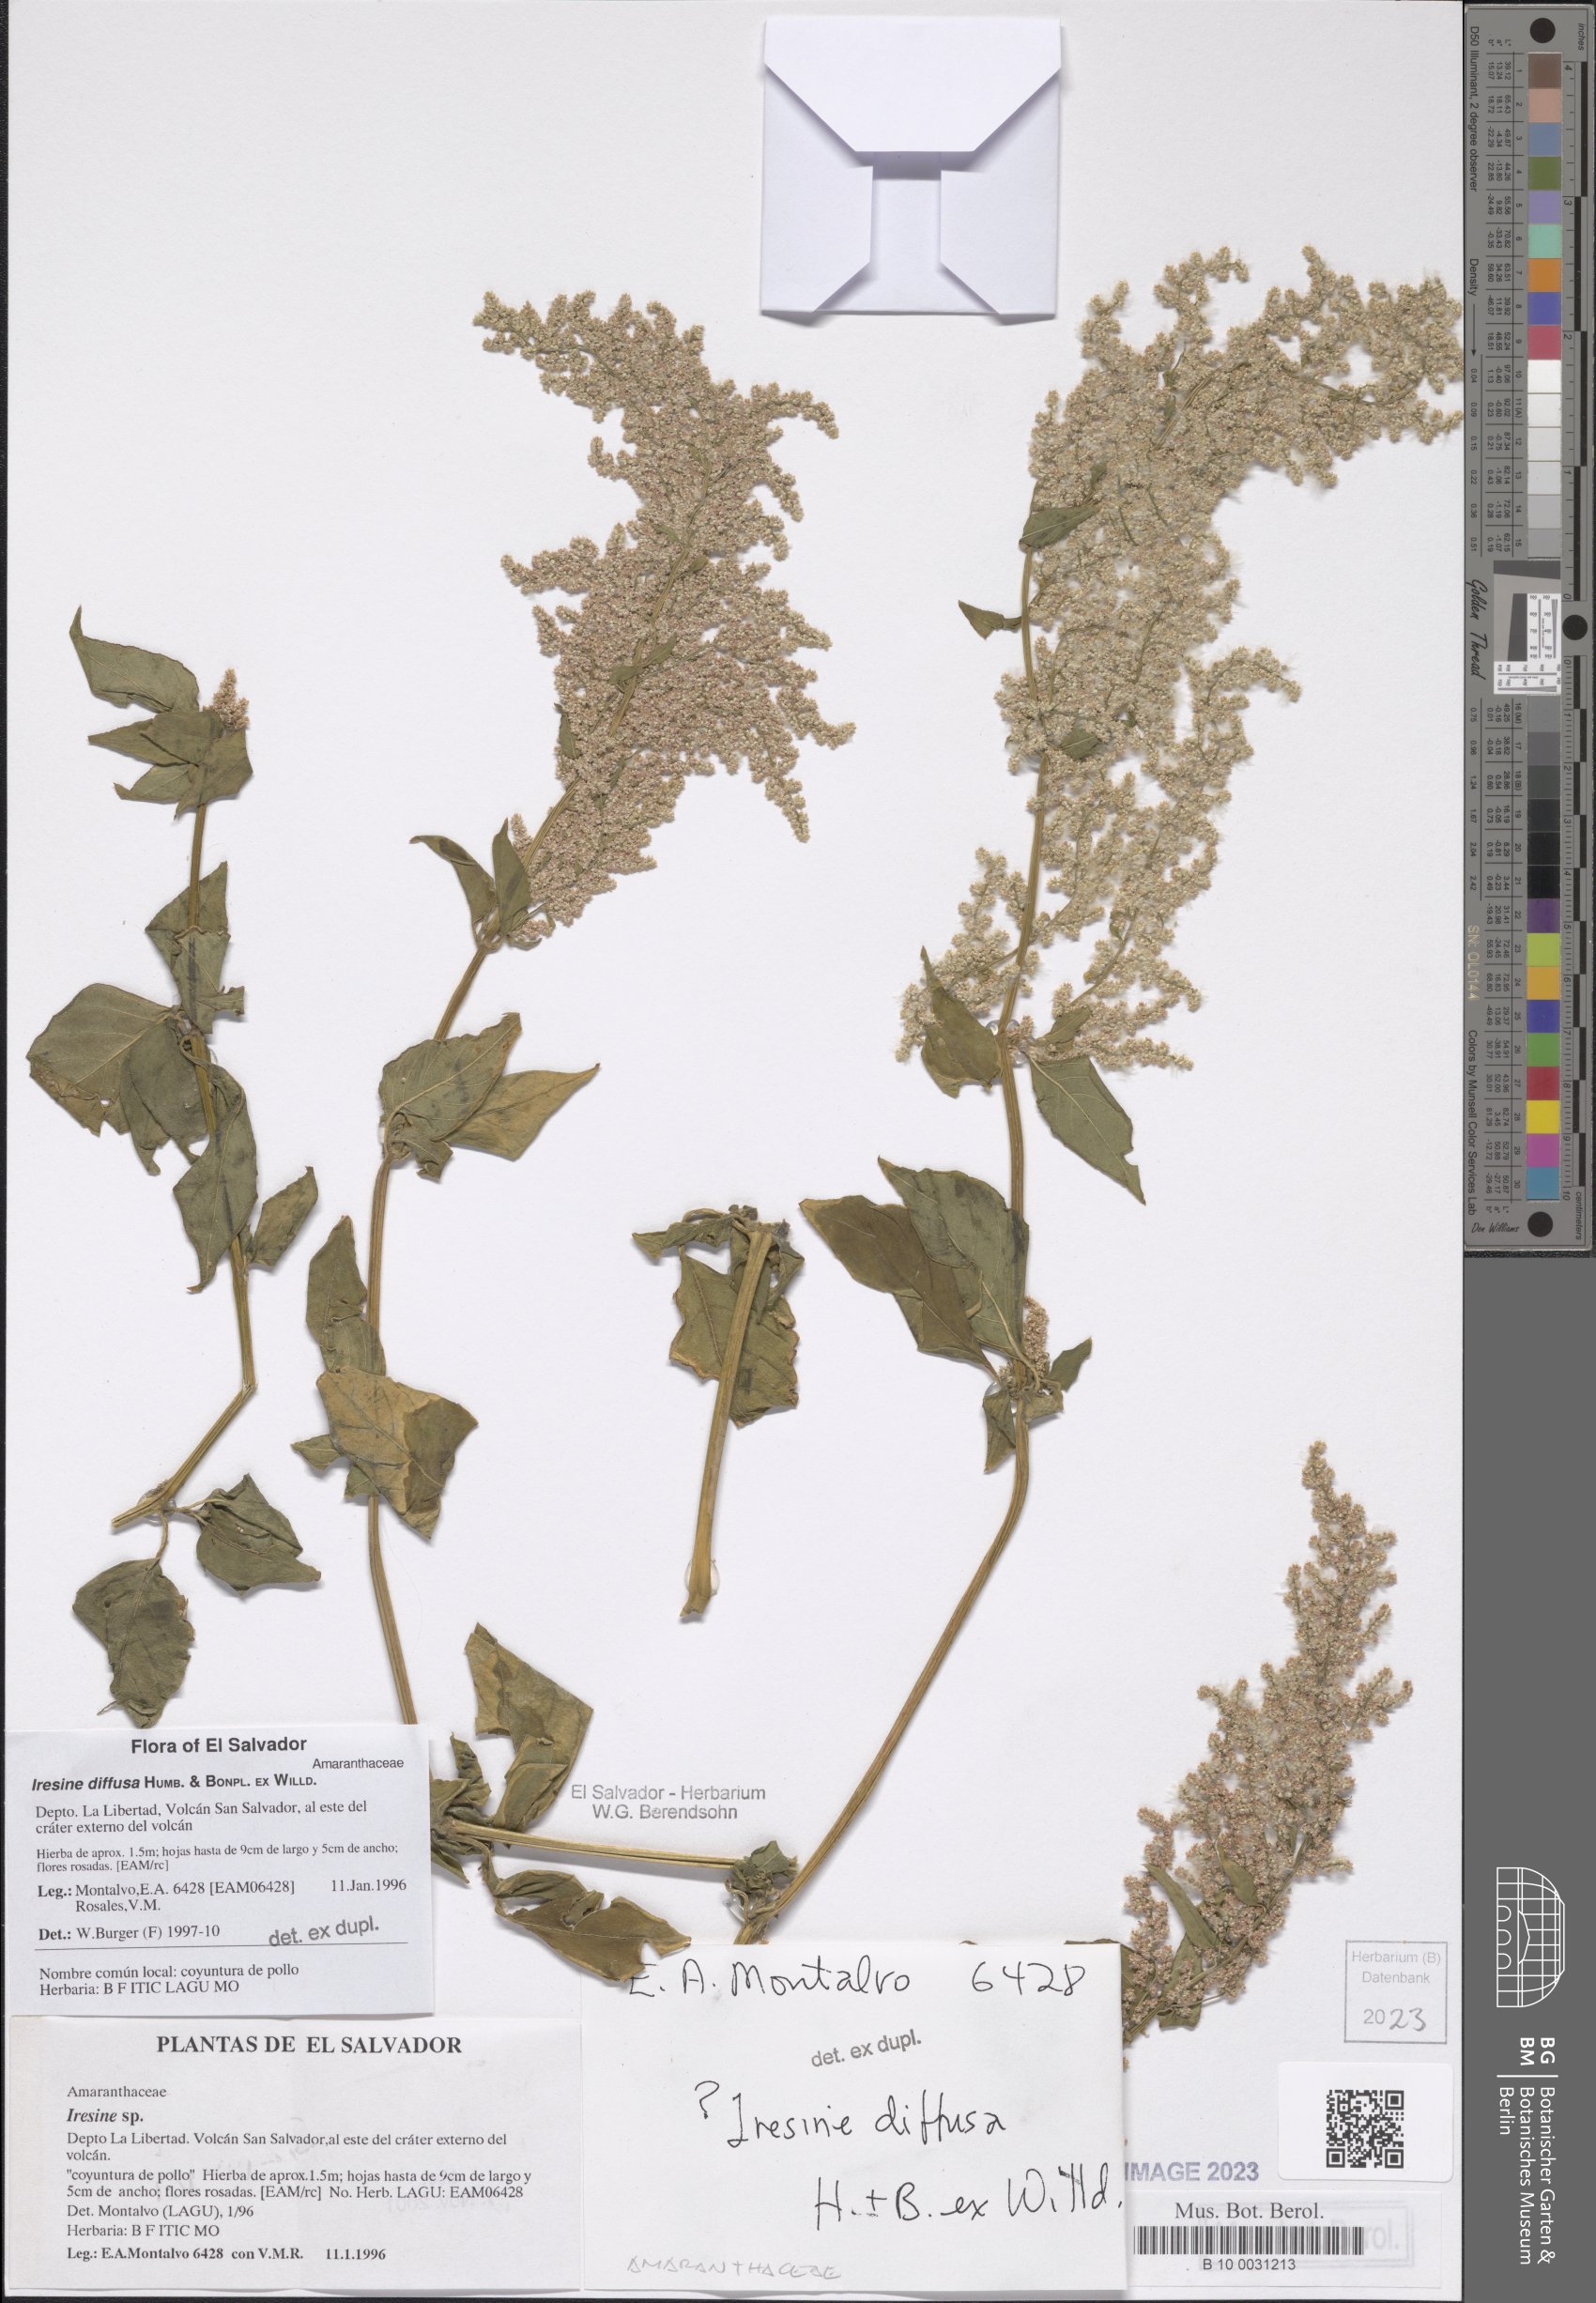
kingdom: Plantae
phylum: Tracheophyta
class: Magnoliopsida
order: Caryophyllales
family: Amaranthaceae
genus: Iresine
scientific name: Iresine diffusa
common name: Juba's-bush
